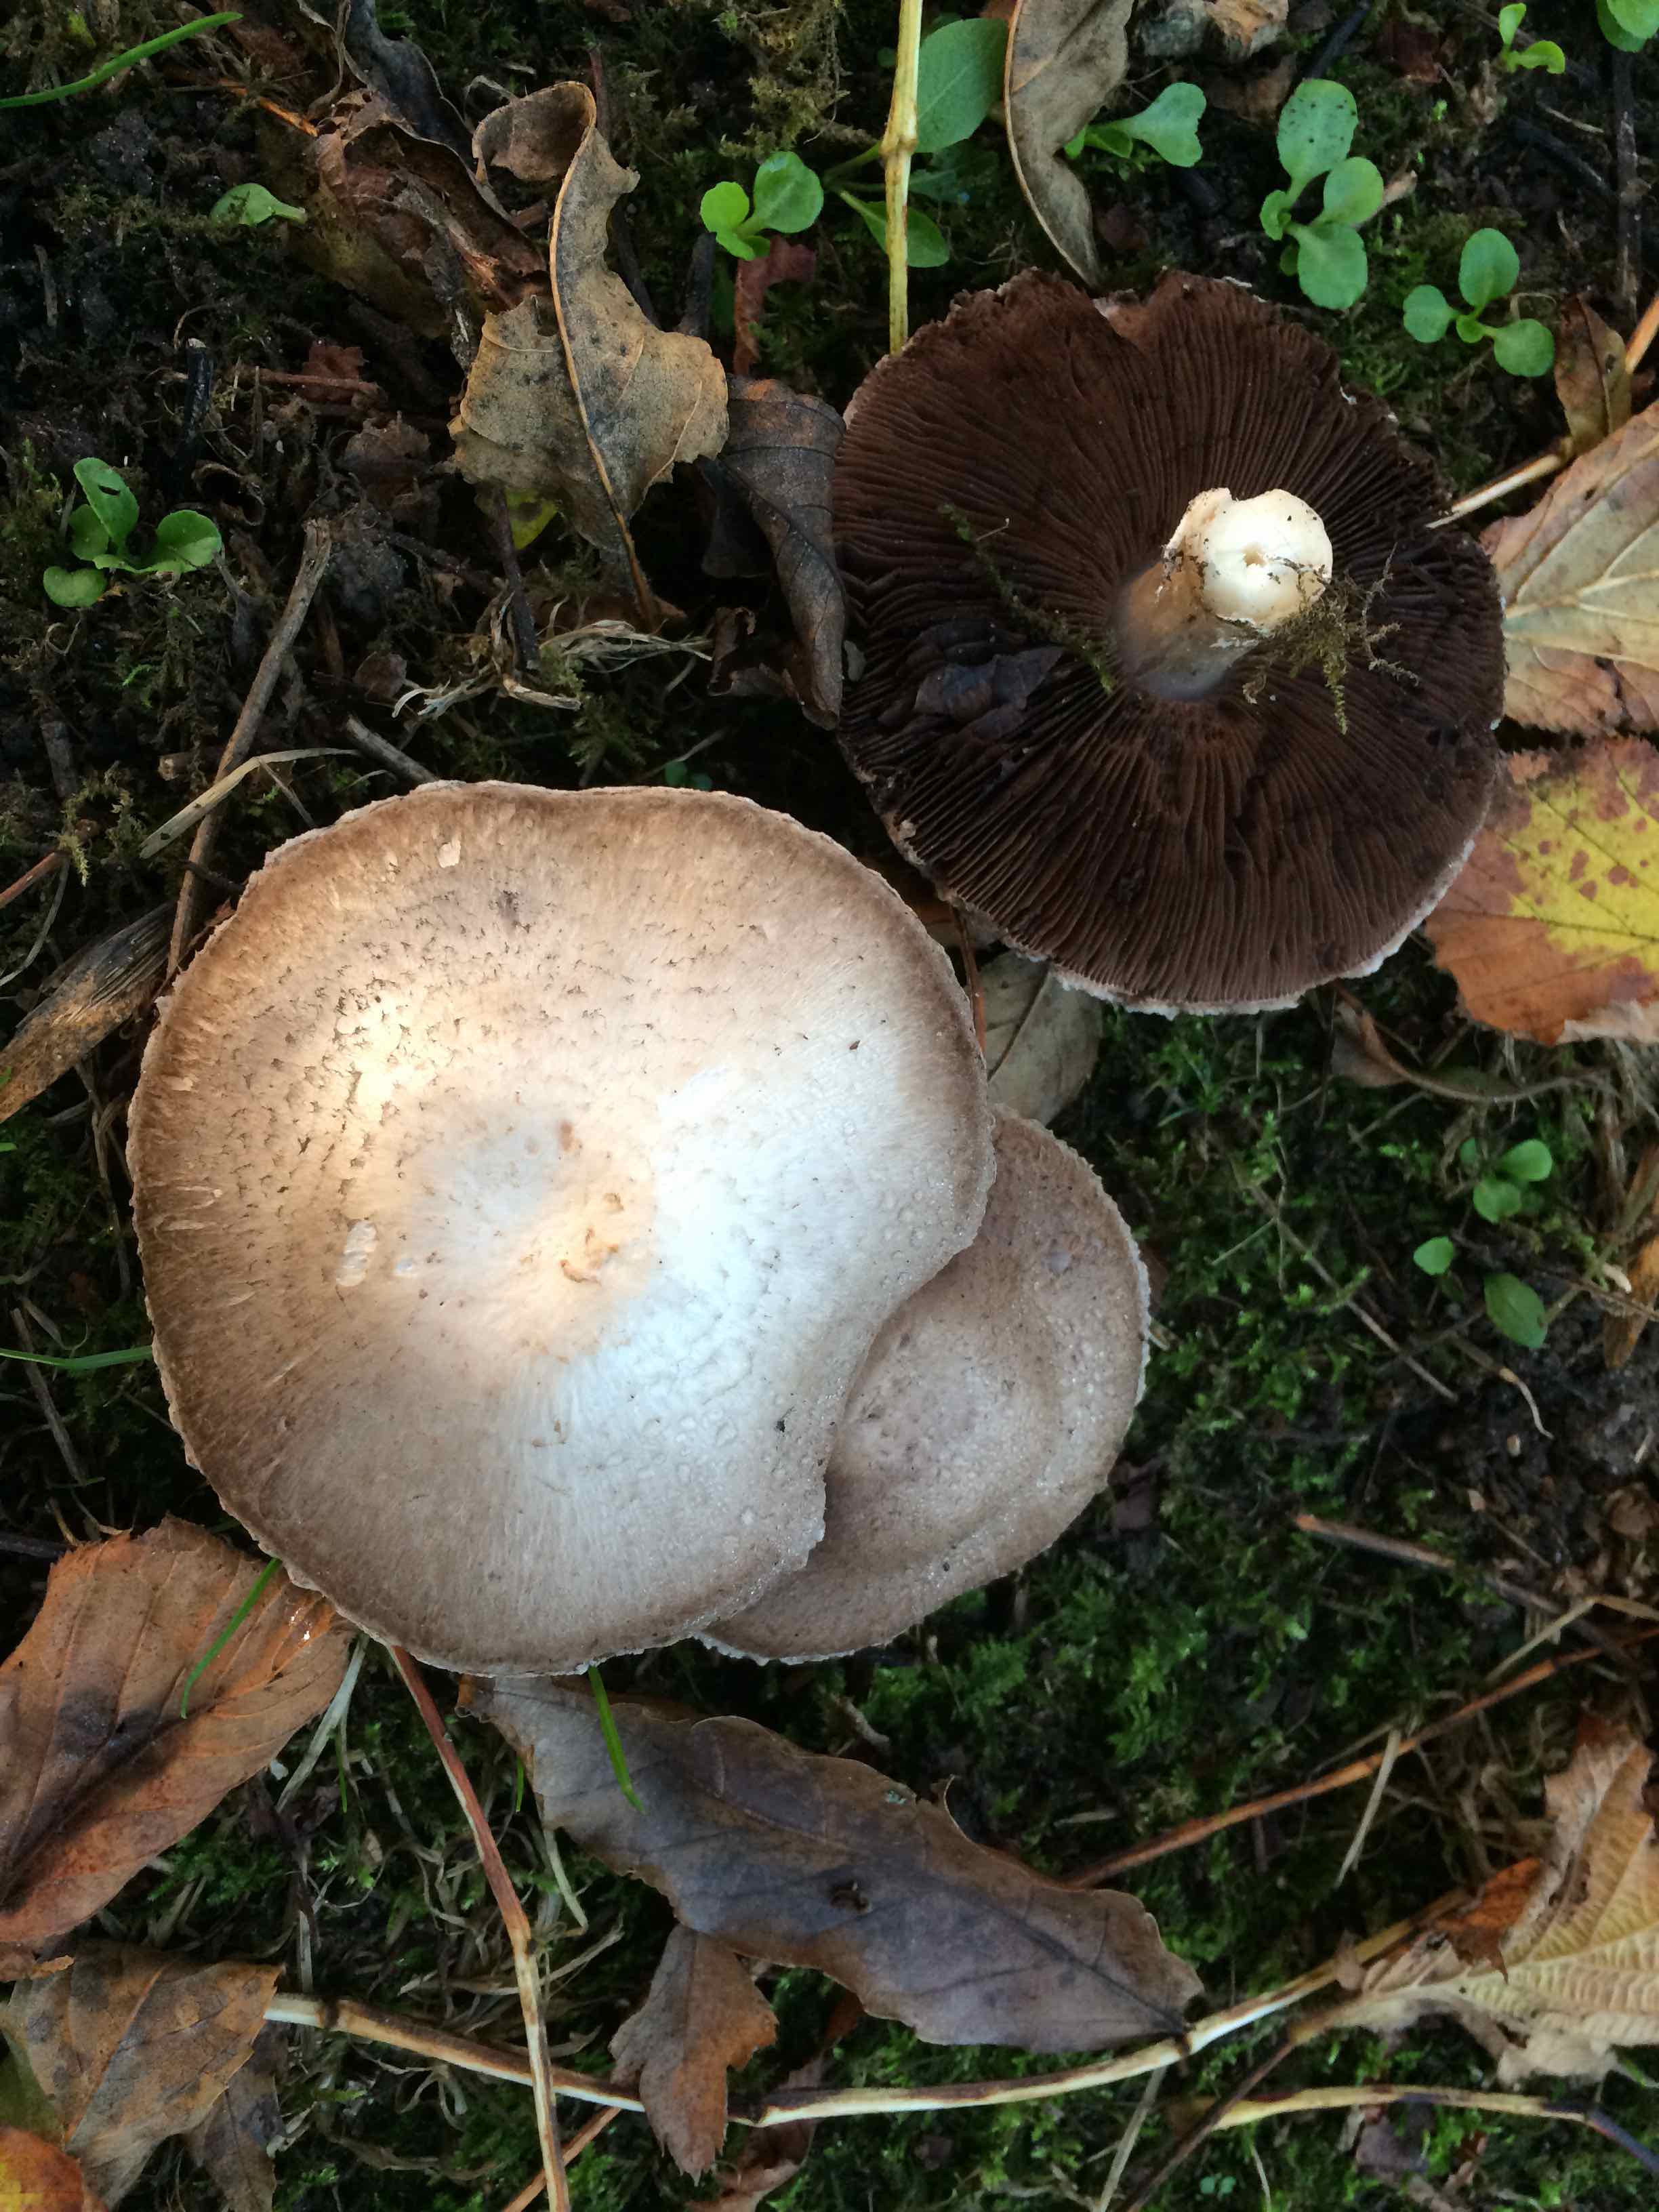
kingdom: Fungi
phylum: Basidiomycota
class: Agaricomycetes
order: Agaricales
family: Agaricaceae
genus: Agaricus
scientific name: Agaricus campestris
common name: mark-champignon
